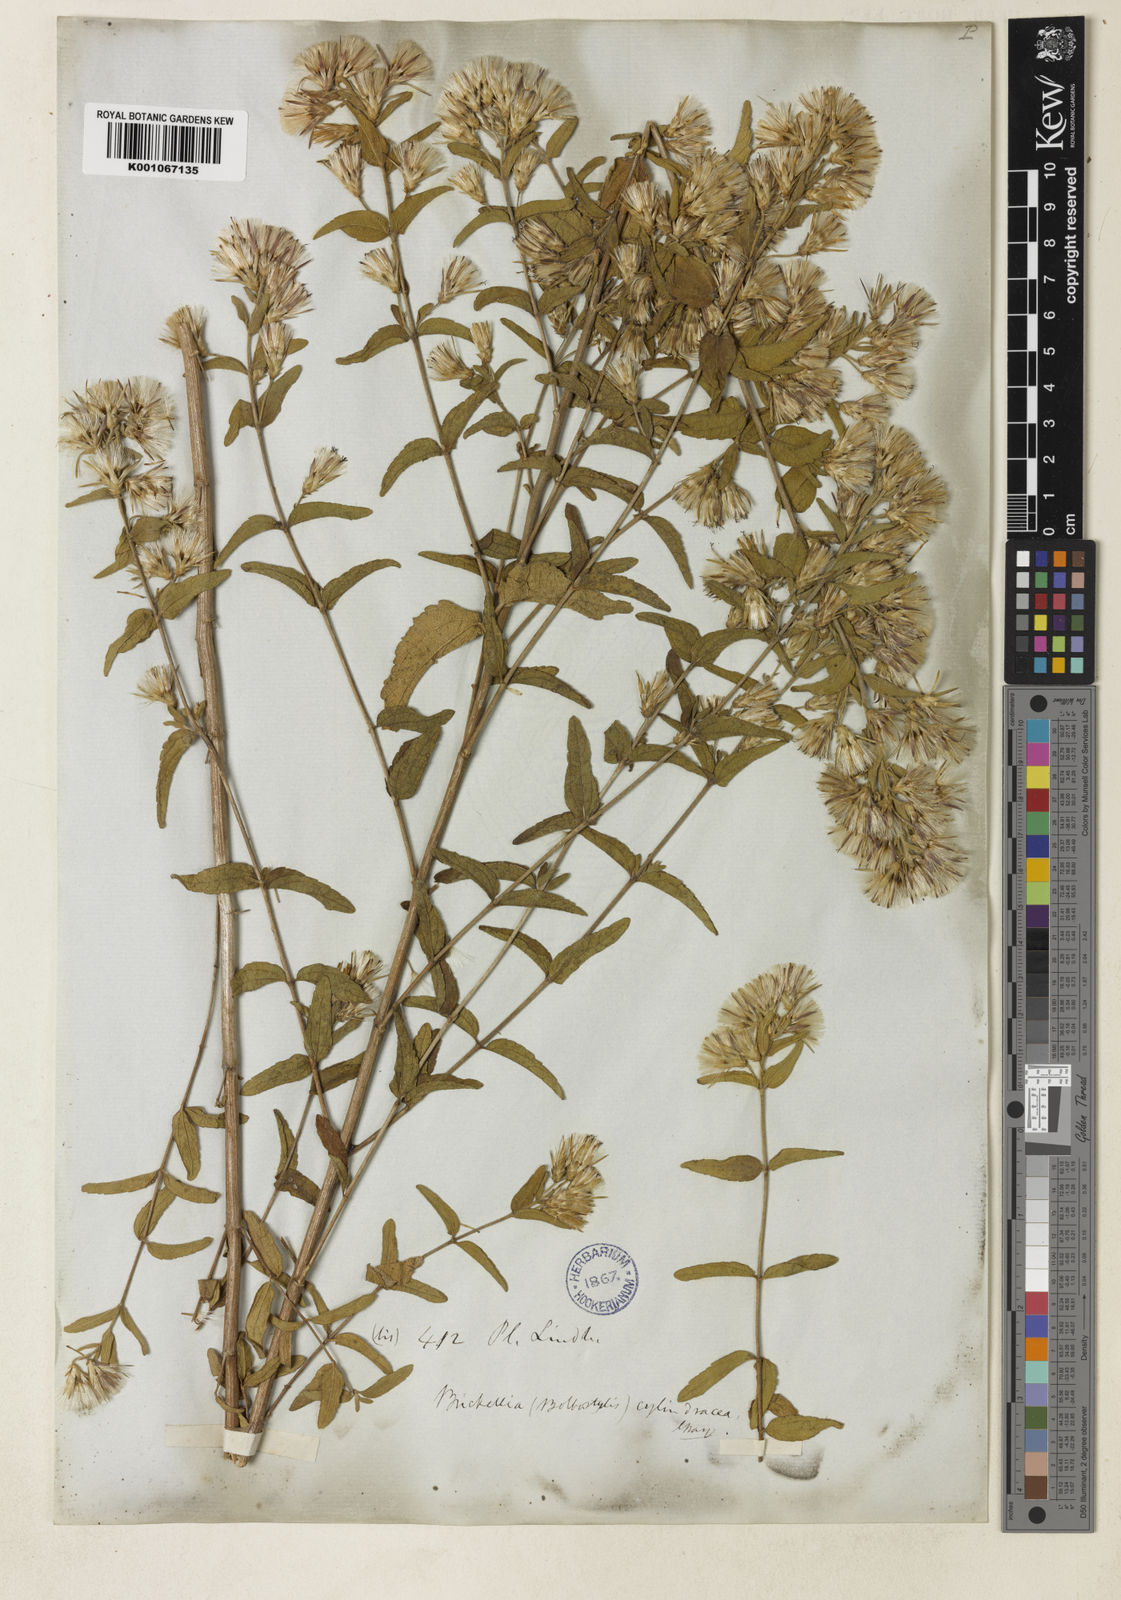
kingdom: Plantae
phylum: Tracheophyta
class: Magnoliopsida
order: Asterales
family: Asteraceae
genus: Brickellia
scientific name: Brickellia cylindracea
